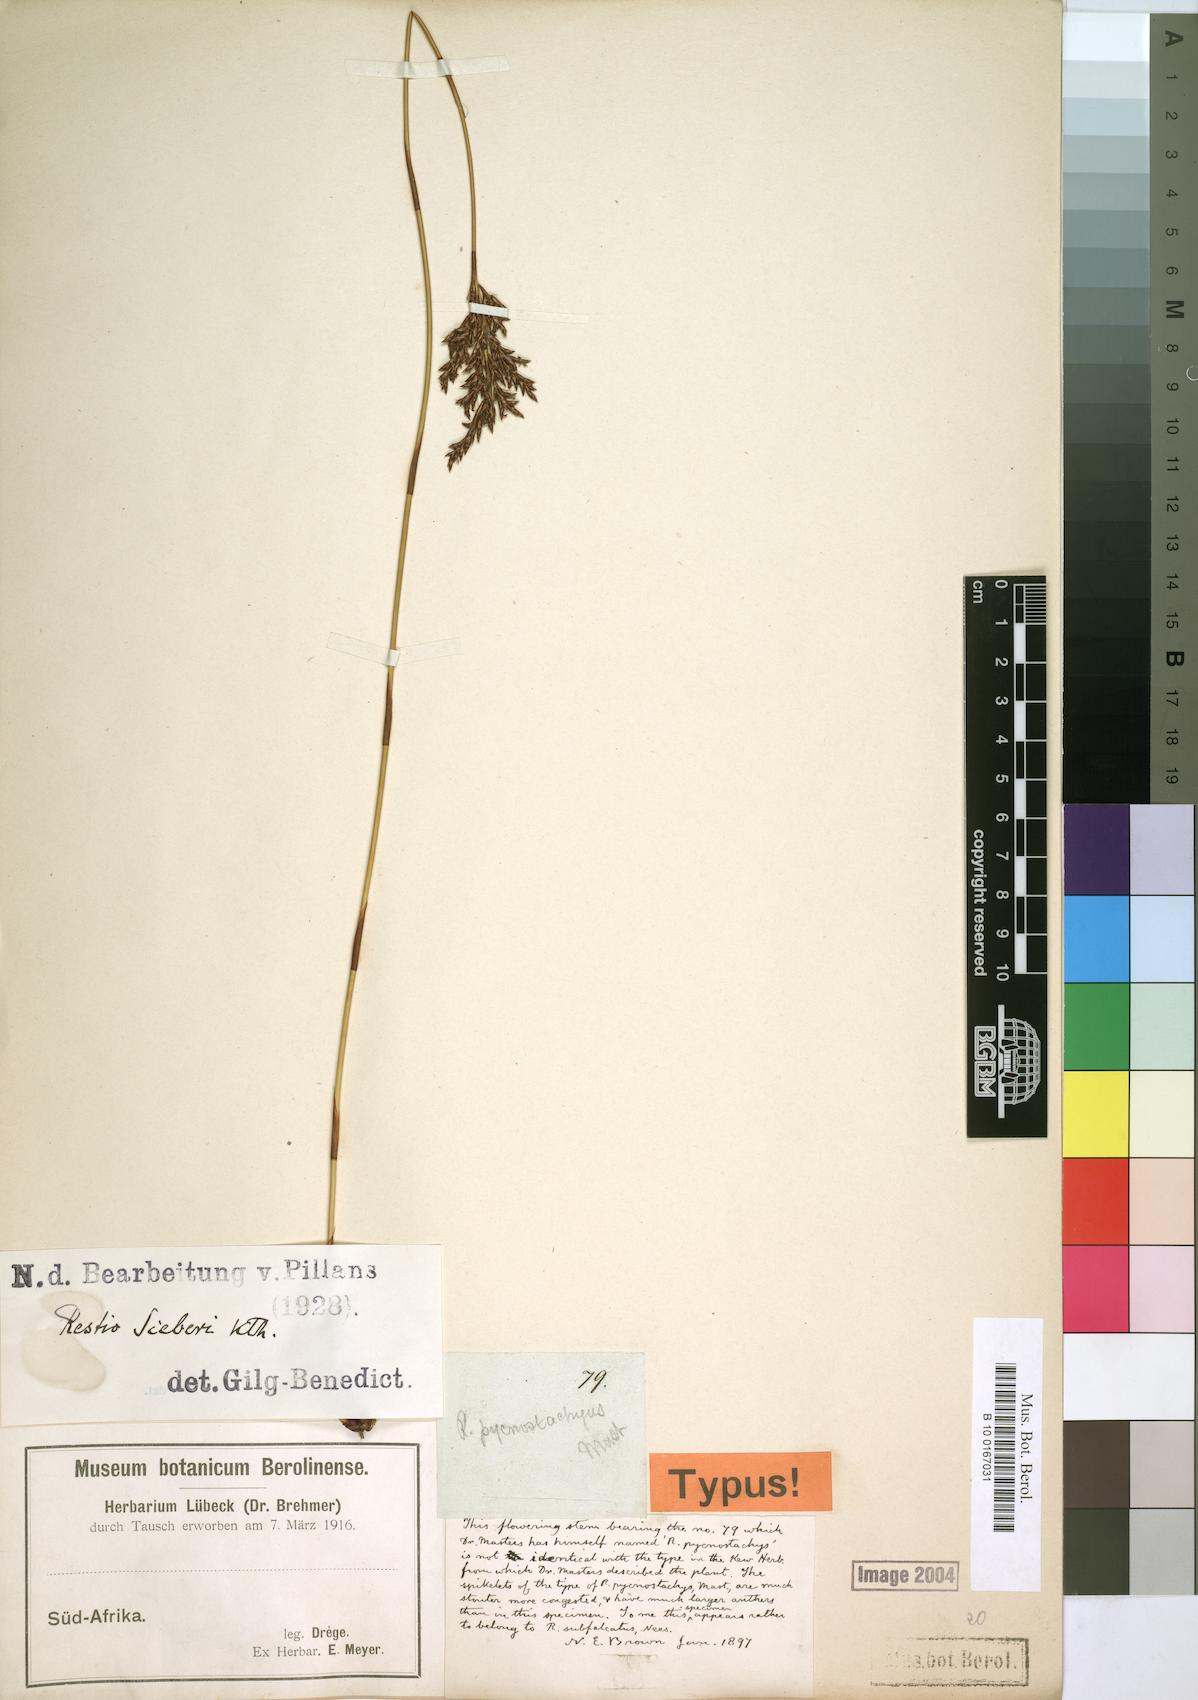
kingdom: Plantae
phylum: Tracheophyta
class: Liliopsida
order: Poales
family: Restionaceae
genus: Restio
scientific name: Restio sieberi
